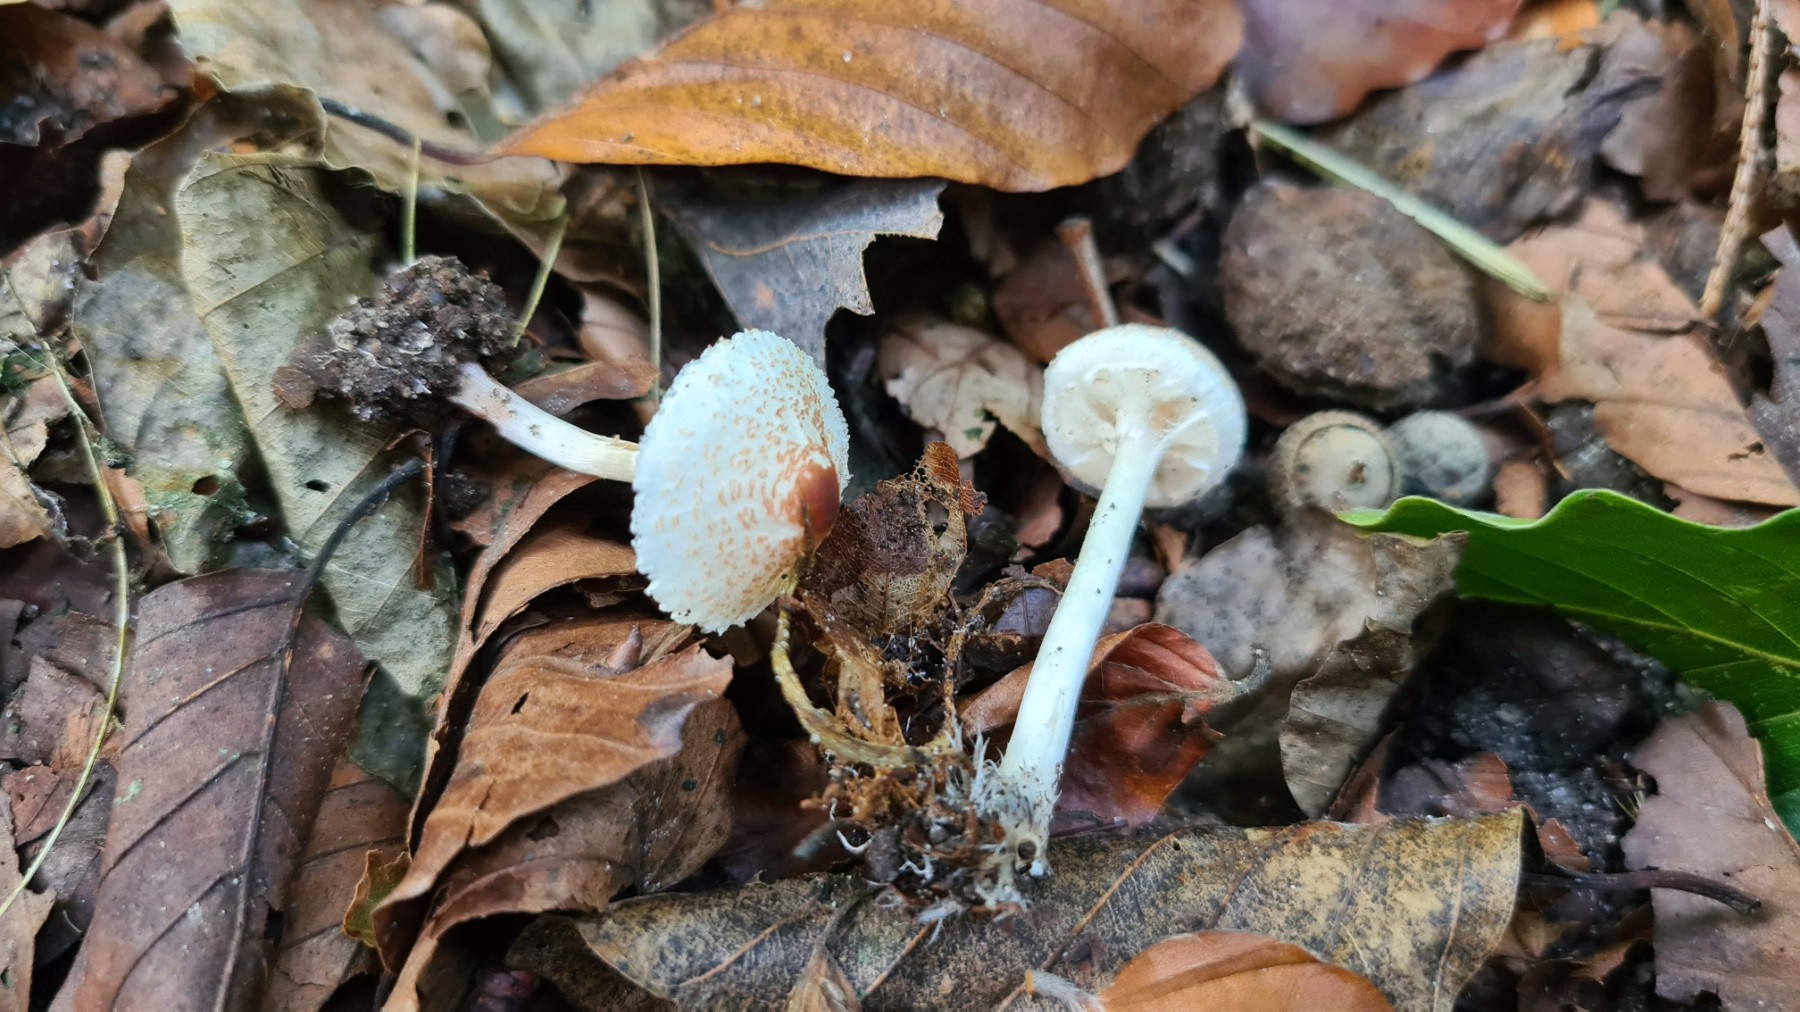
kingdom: Fungi
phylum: Basidiomycota
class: Agaricomycetes
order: Agaricales
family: Agaricaceae
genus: Lepiota
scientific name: Lepiota cristata
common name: stinkende parasolhat
